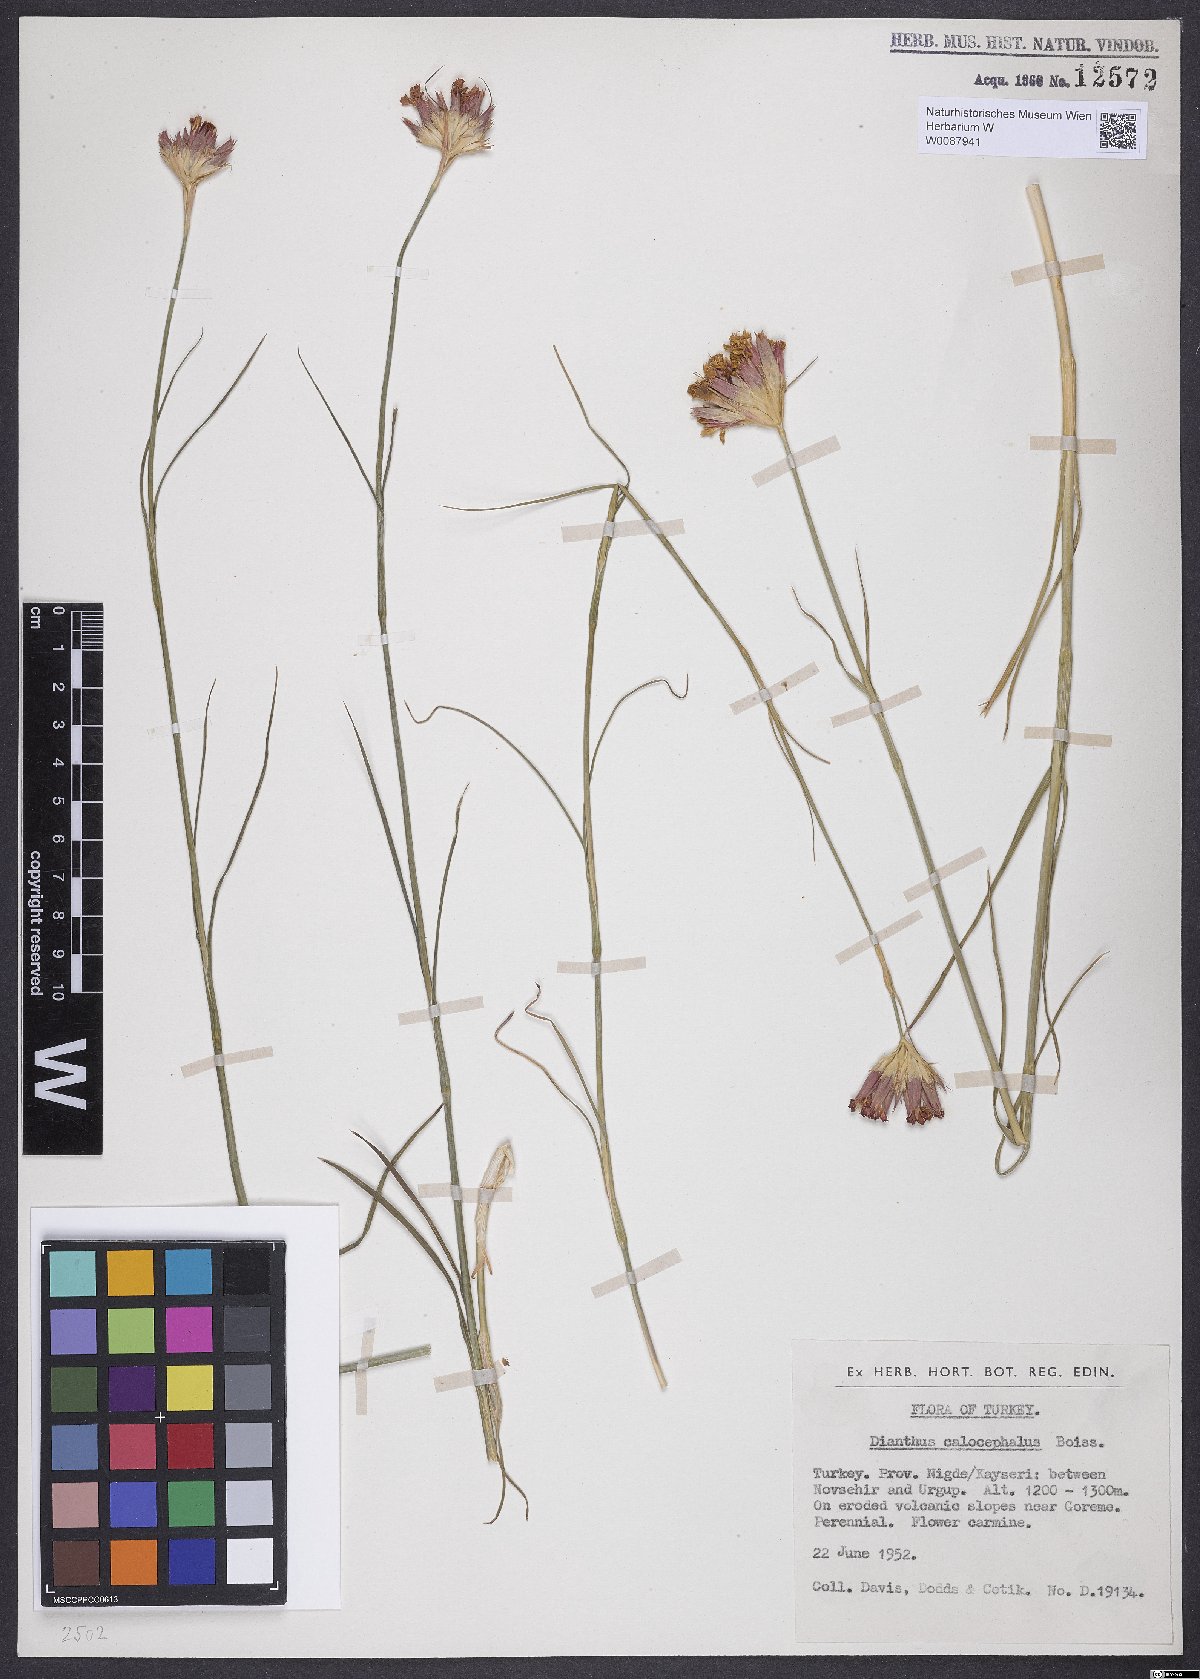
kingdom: Plantae
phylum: Tracheophyta
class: Magnoliopsida
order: Caryophyllales
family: Caryophyllaceae
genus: Dianthus
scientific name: Dianthus cruentus
